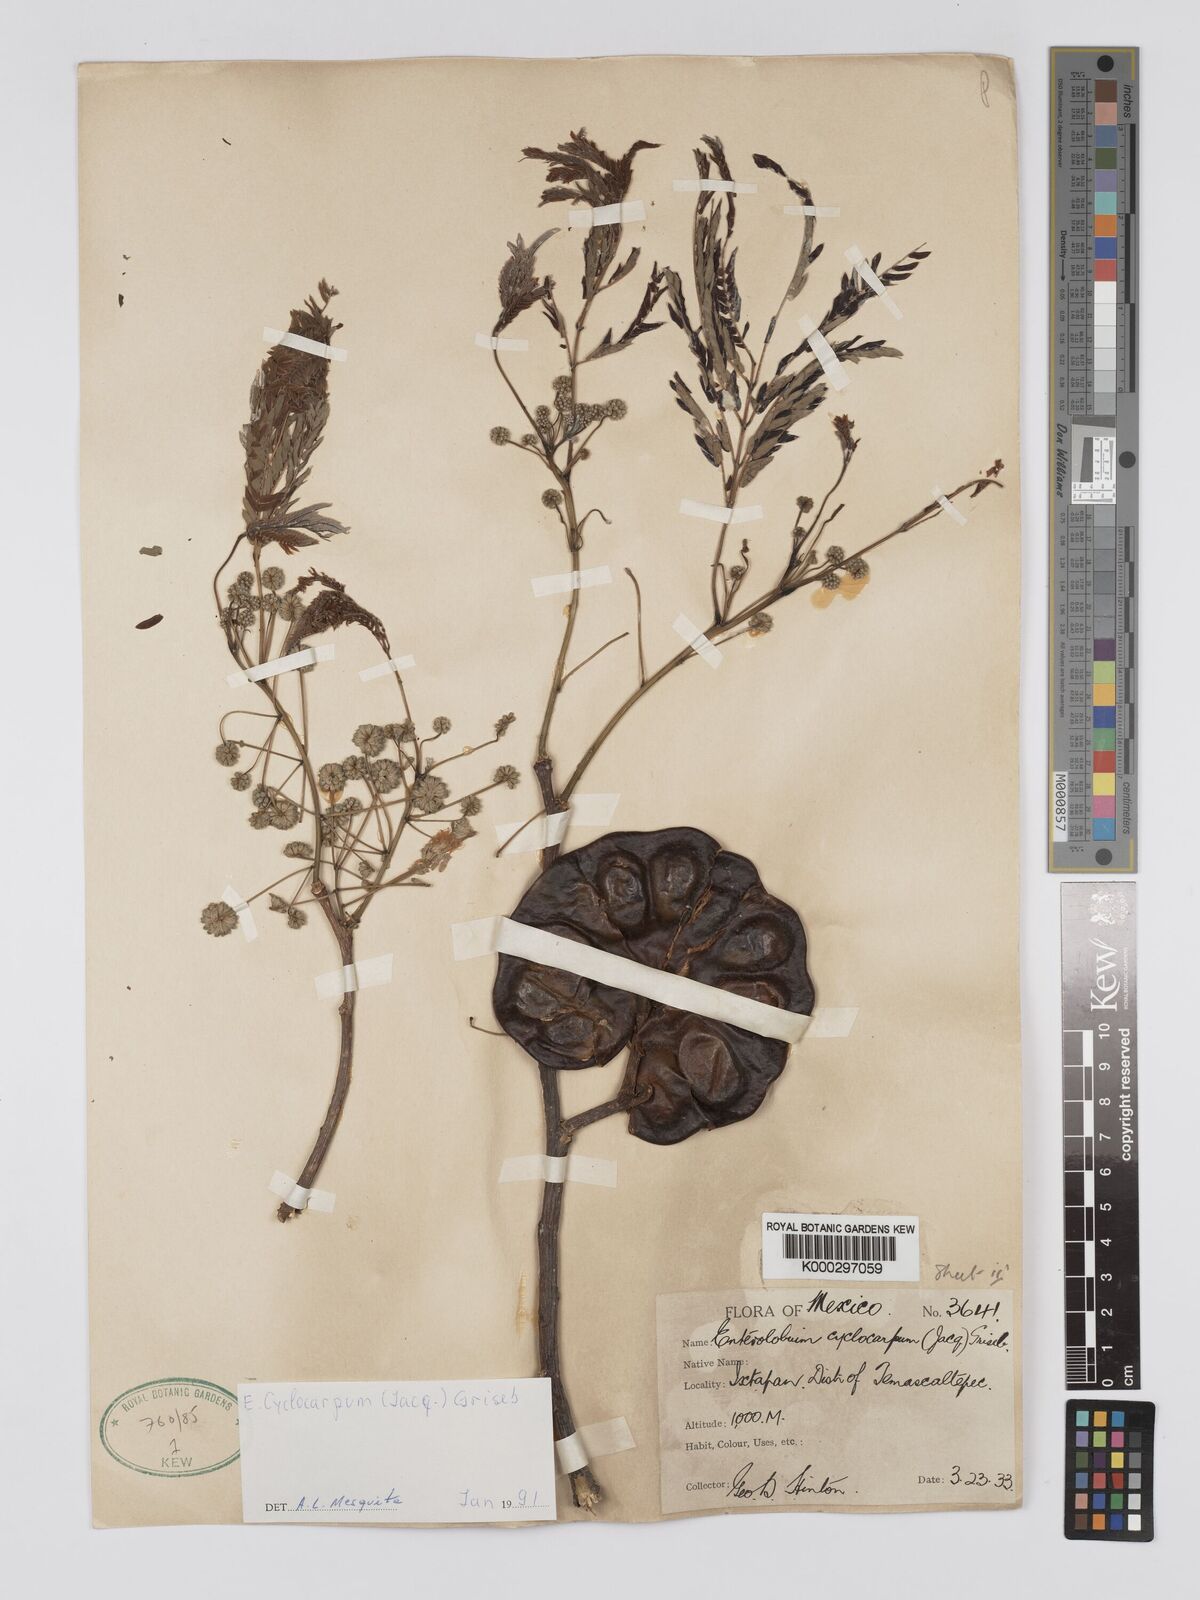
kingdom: Plantae
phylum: Tracheophyta
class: Magnoliopsida
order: Fabales
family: Fabaceae
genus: Enterolobium
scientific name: Enterolobium cyclocarpum
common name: Ear tree
